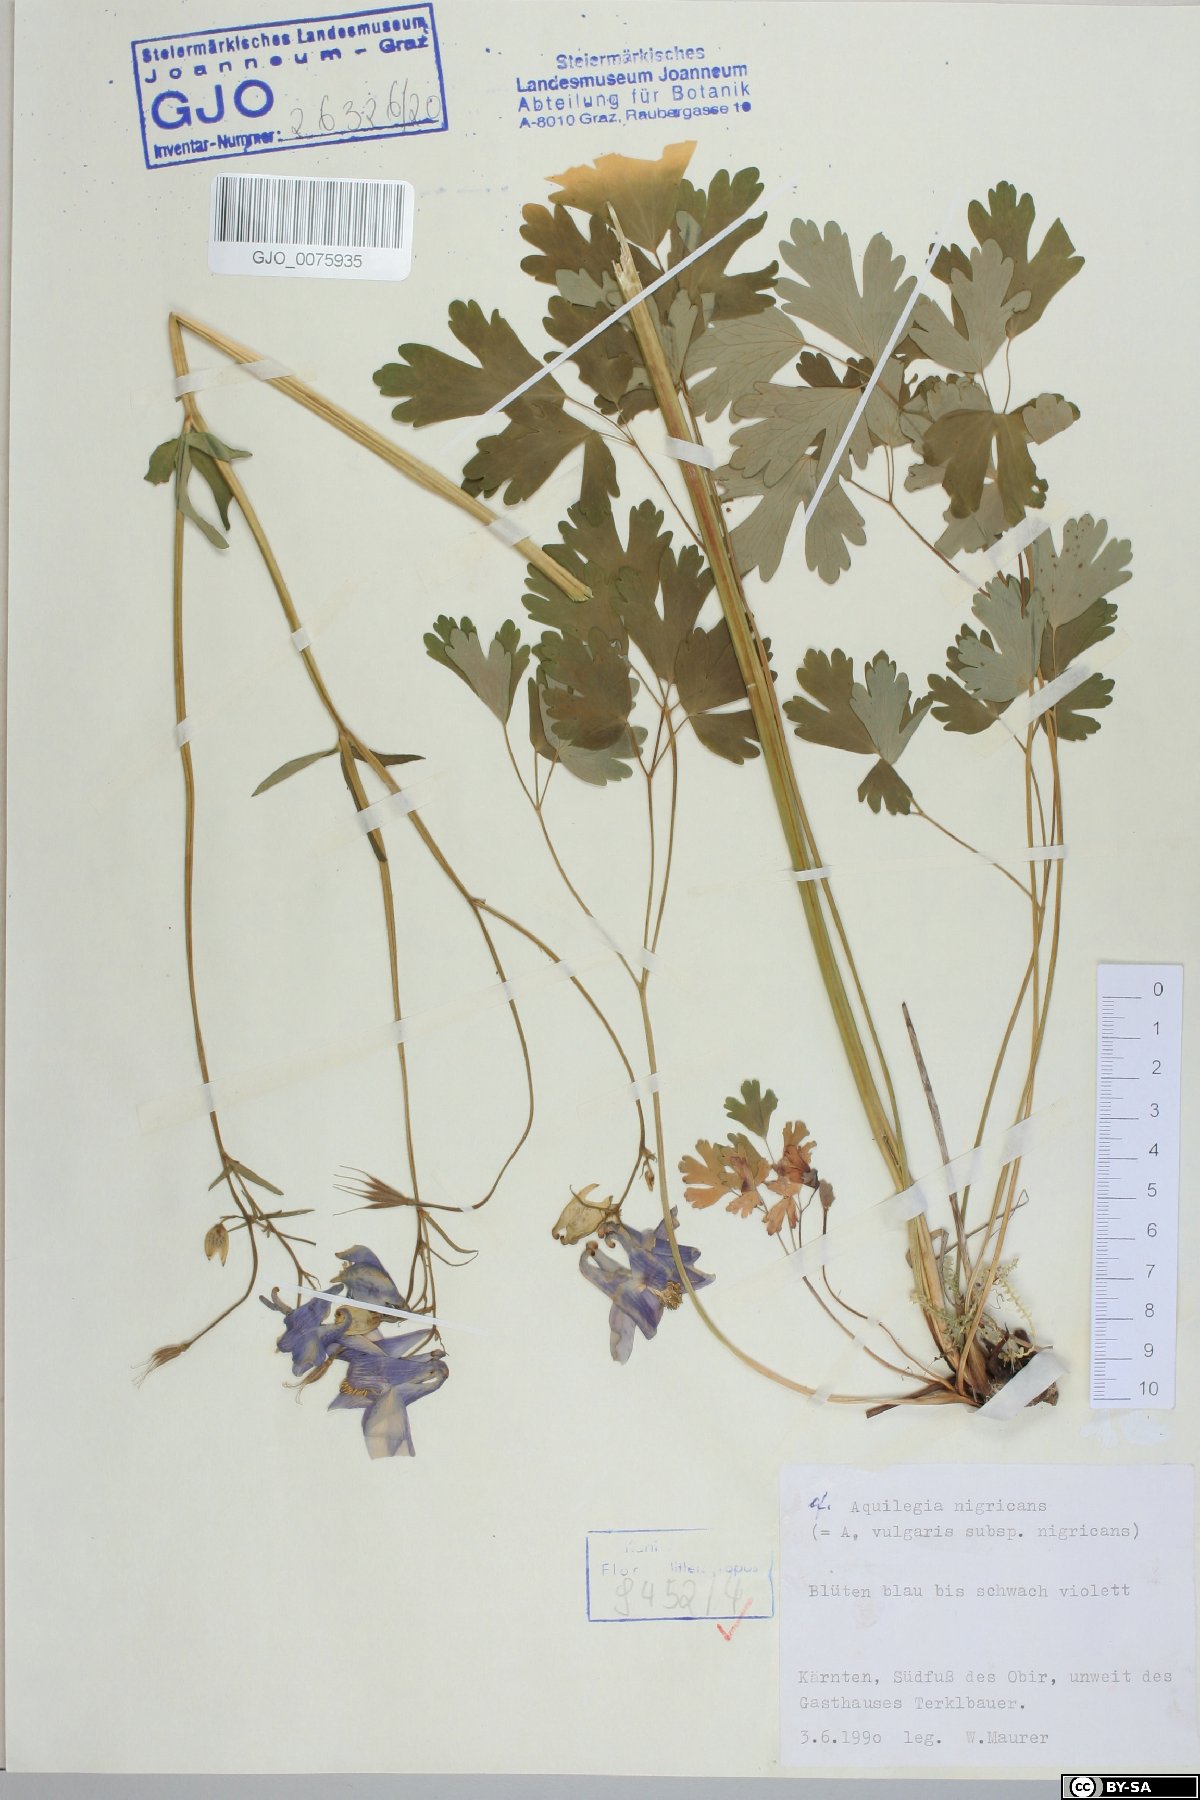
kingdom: Plantae
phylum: Tracheophyta
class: Magnoliopsida
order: Ranunculales
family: Ranunculaceae
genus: Aquilegia
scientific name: Aquilegia nigricans
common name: Bulgarian columbine
